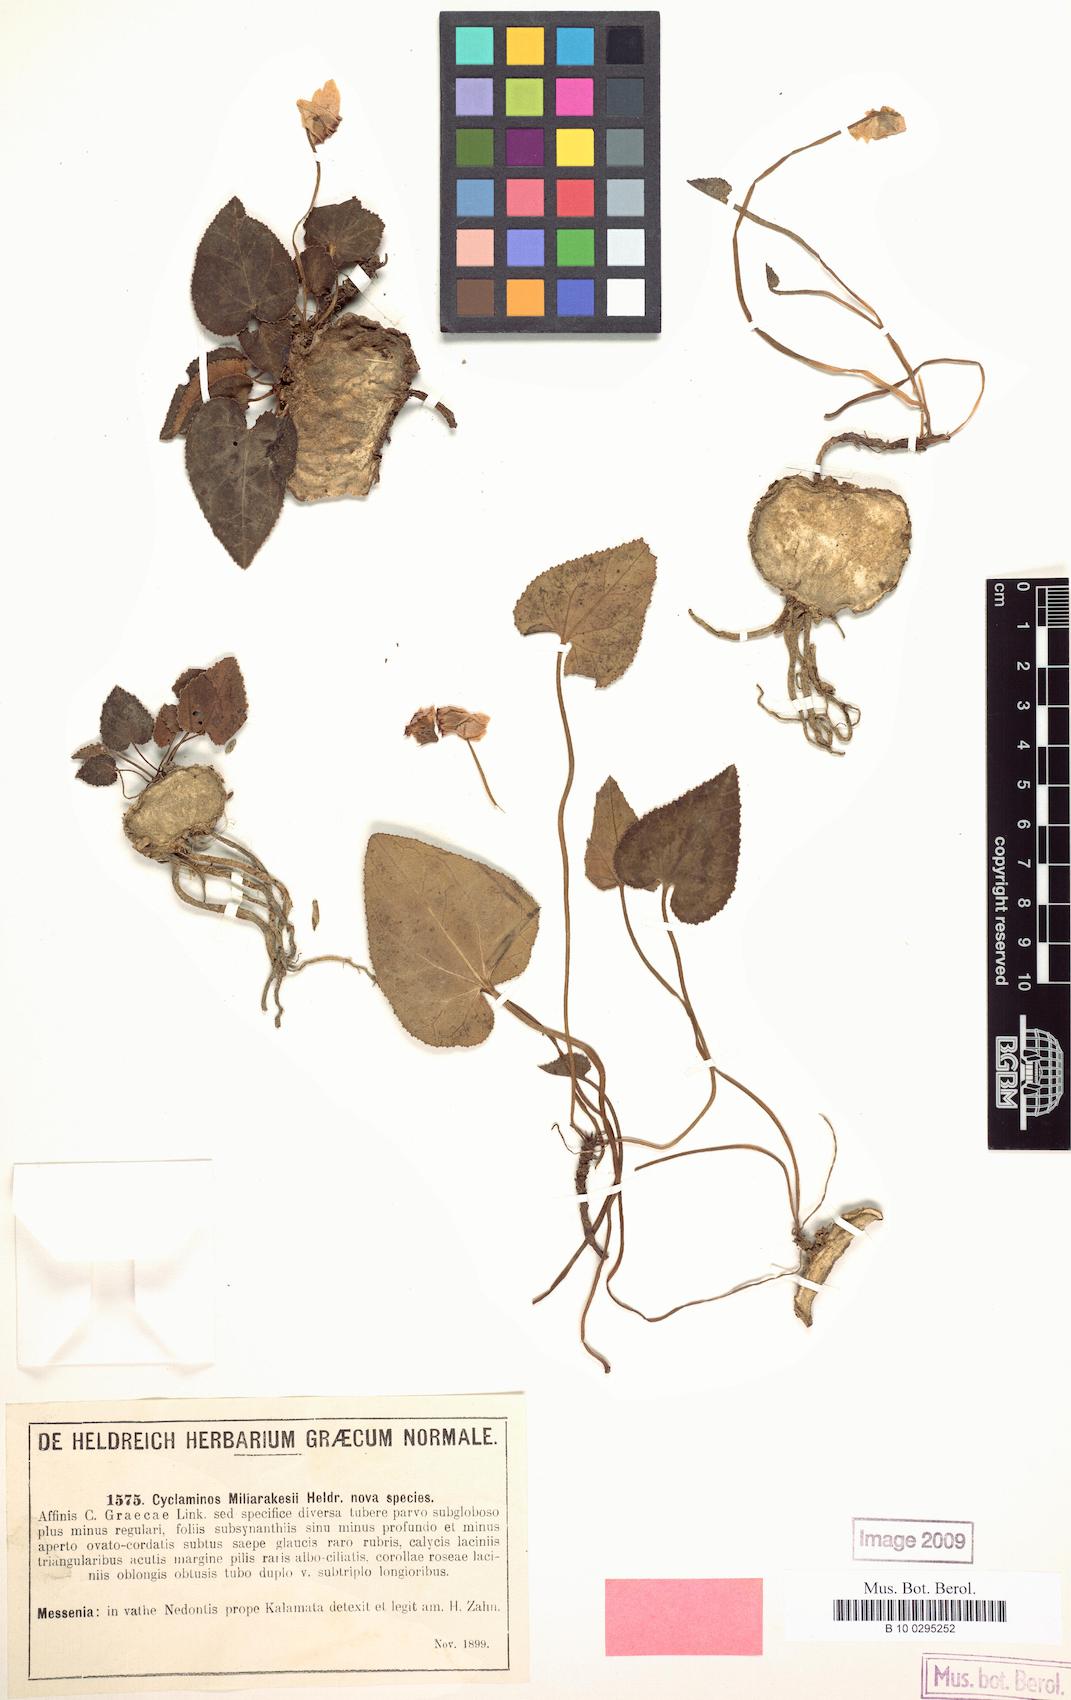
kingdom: Plantae
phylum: Tracheophyta
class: Magnoliopsida
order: Ericales
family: Primulaceae
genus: Cyclamen
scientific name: Cyclamen graecum
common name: Greek cyclamen
